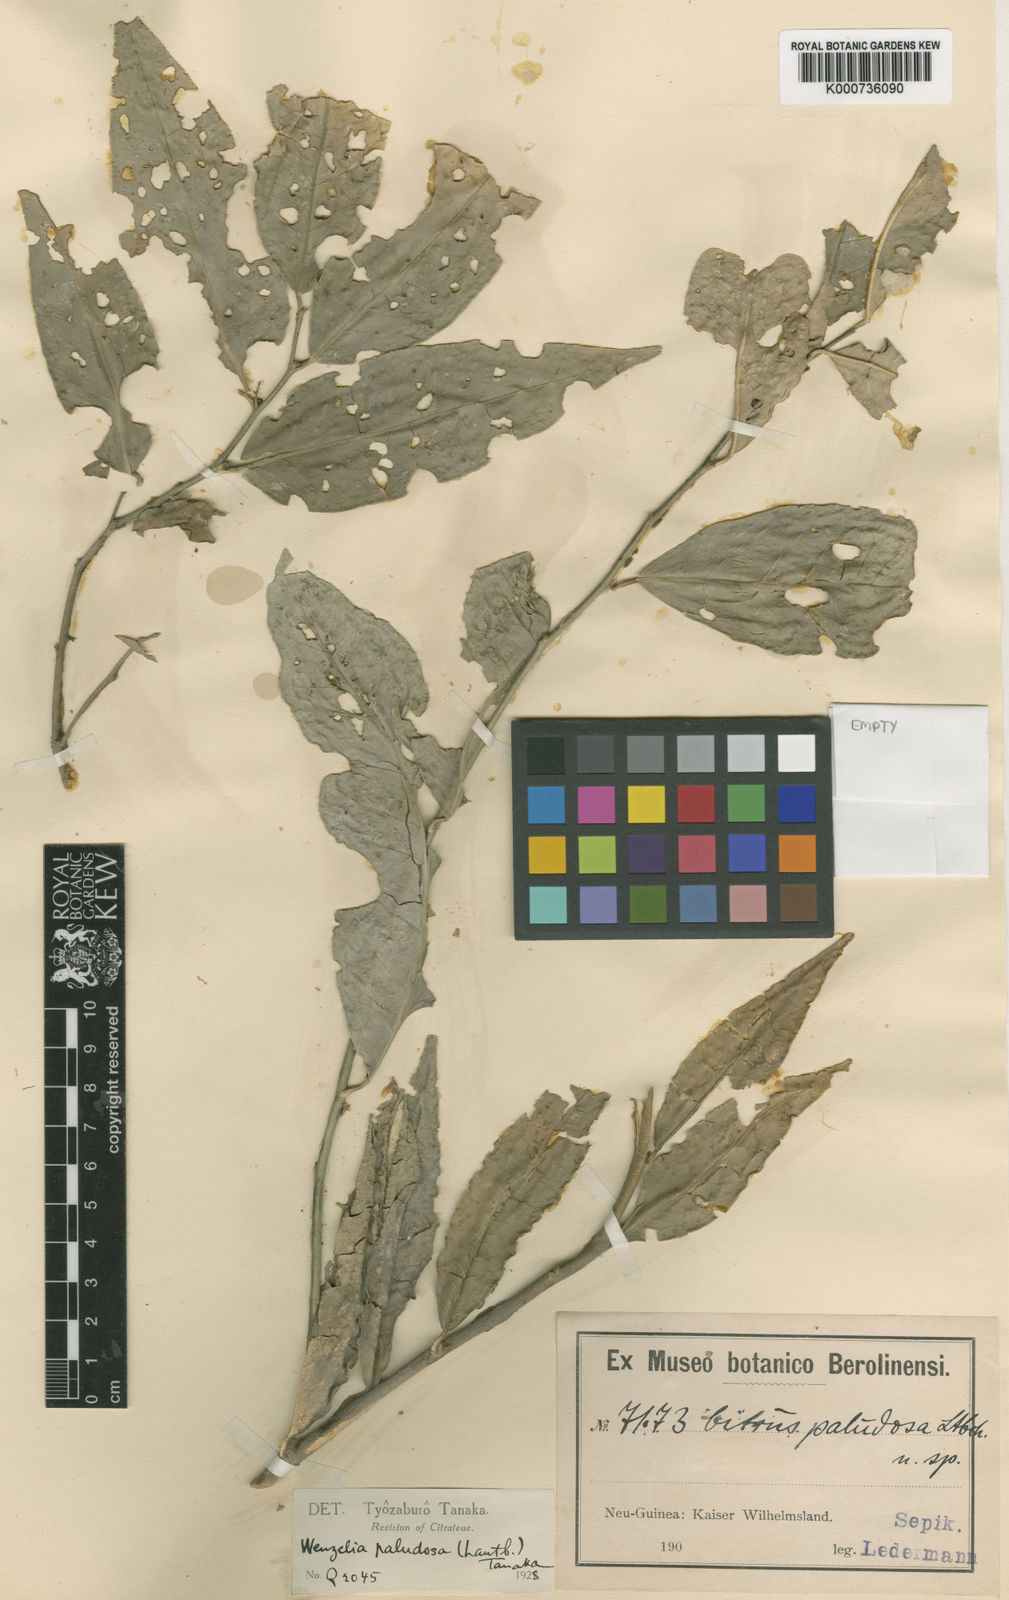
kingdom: Plantae
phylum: Tracheophyta
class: Magnoliopsida
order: Sapindales
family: Rutaceae
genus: Monanthocitrus
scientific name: Monanthocitrus paludosa
